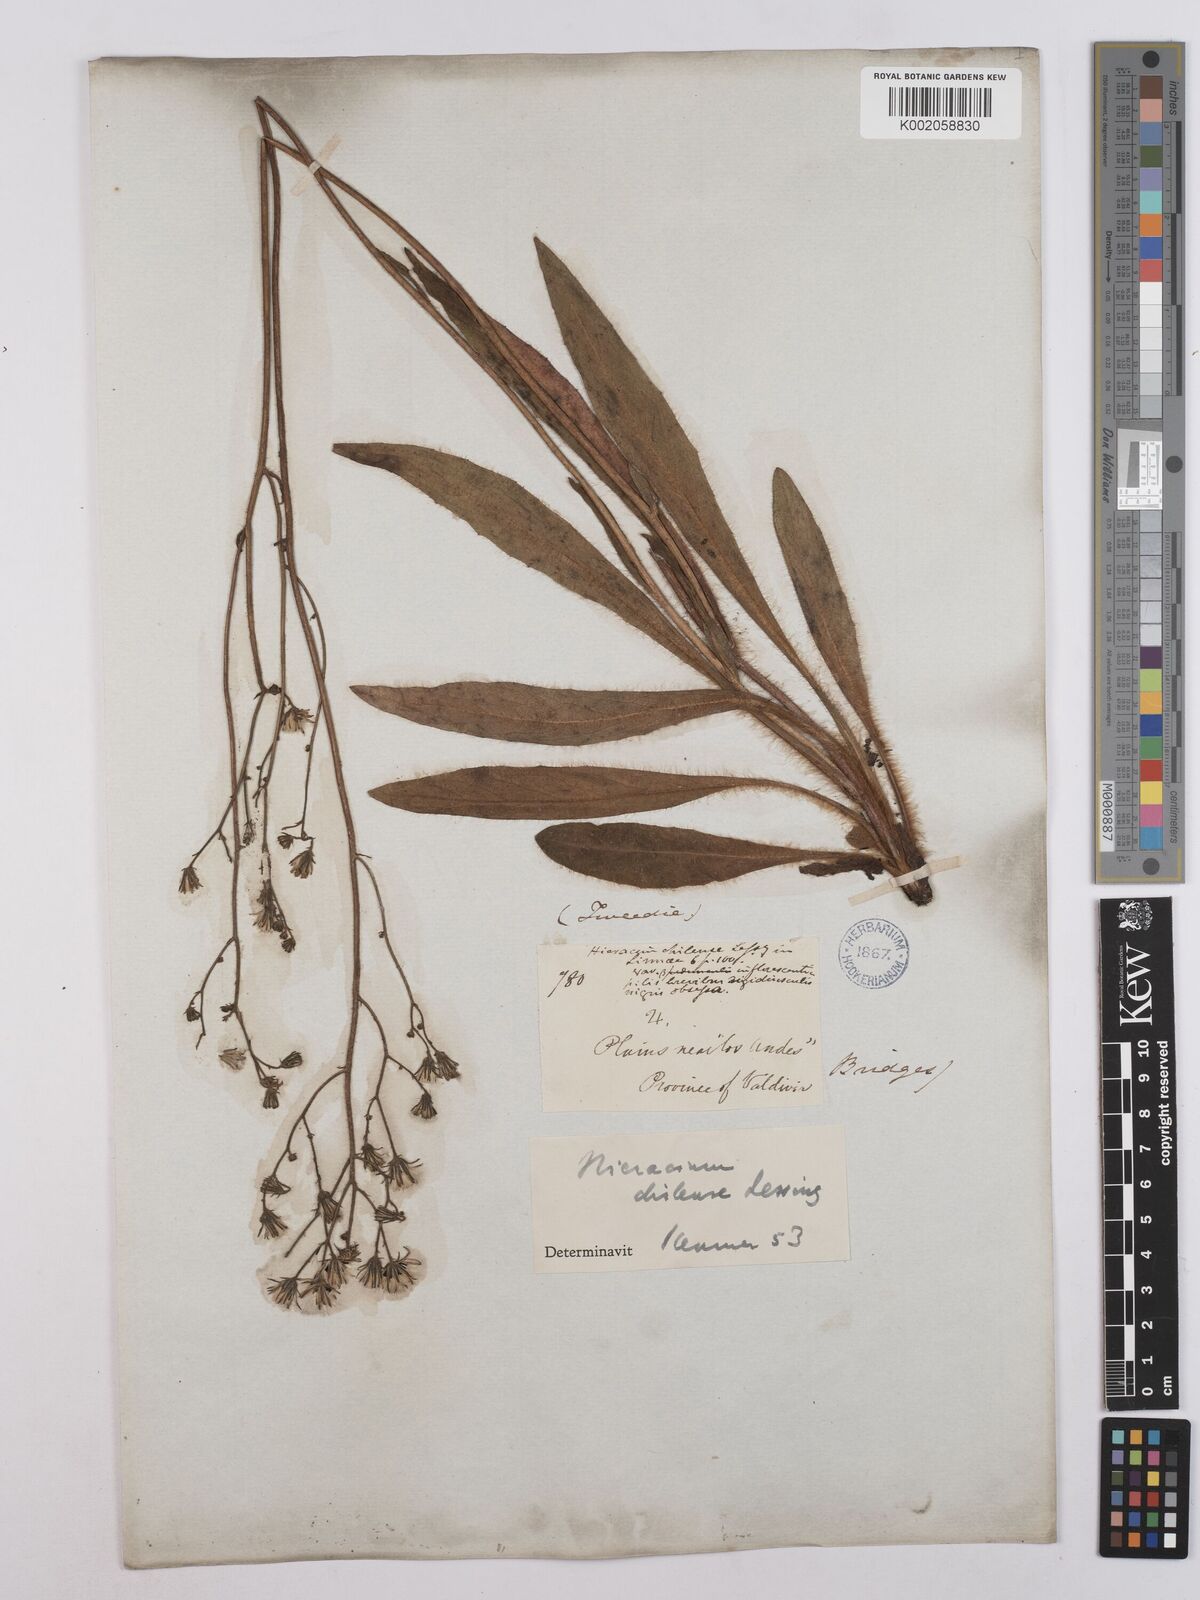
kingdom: Plantae
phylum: Tracheophyta
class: Magnoliopsida
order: Asterales
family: Asteraceae
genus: Hieracium
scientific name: Hieracium chilense
